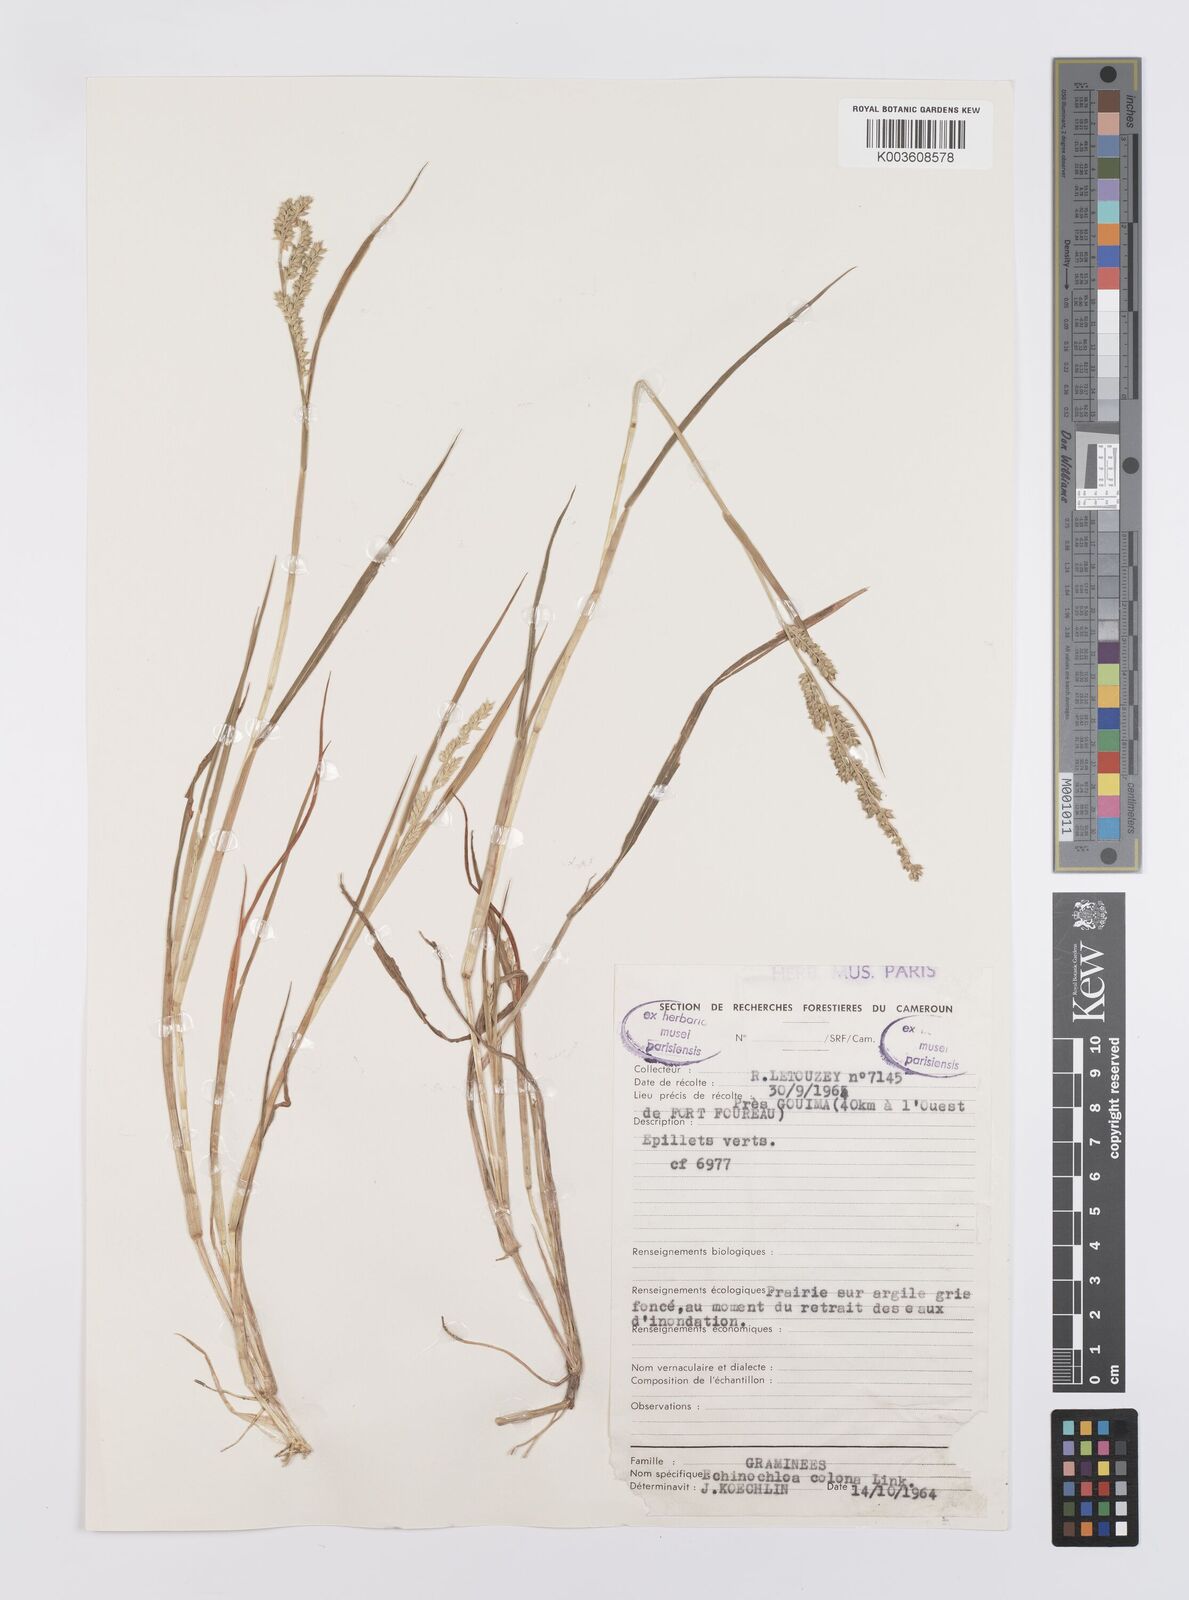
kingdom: Plantae
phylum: Tracheophyta
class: Liliopsida
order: Poales
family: Poaceae
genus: Echinochloa
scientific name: Echinochloa colonum
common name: Jungle rice
